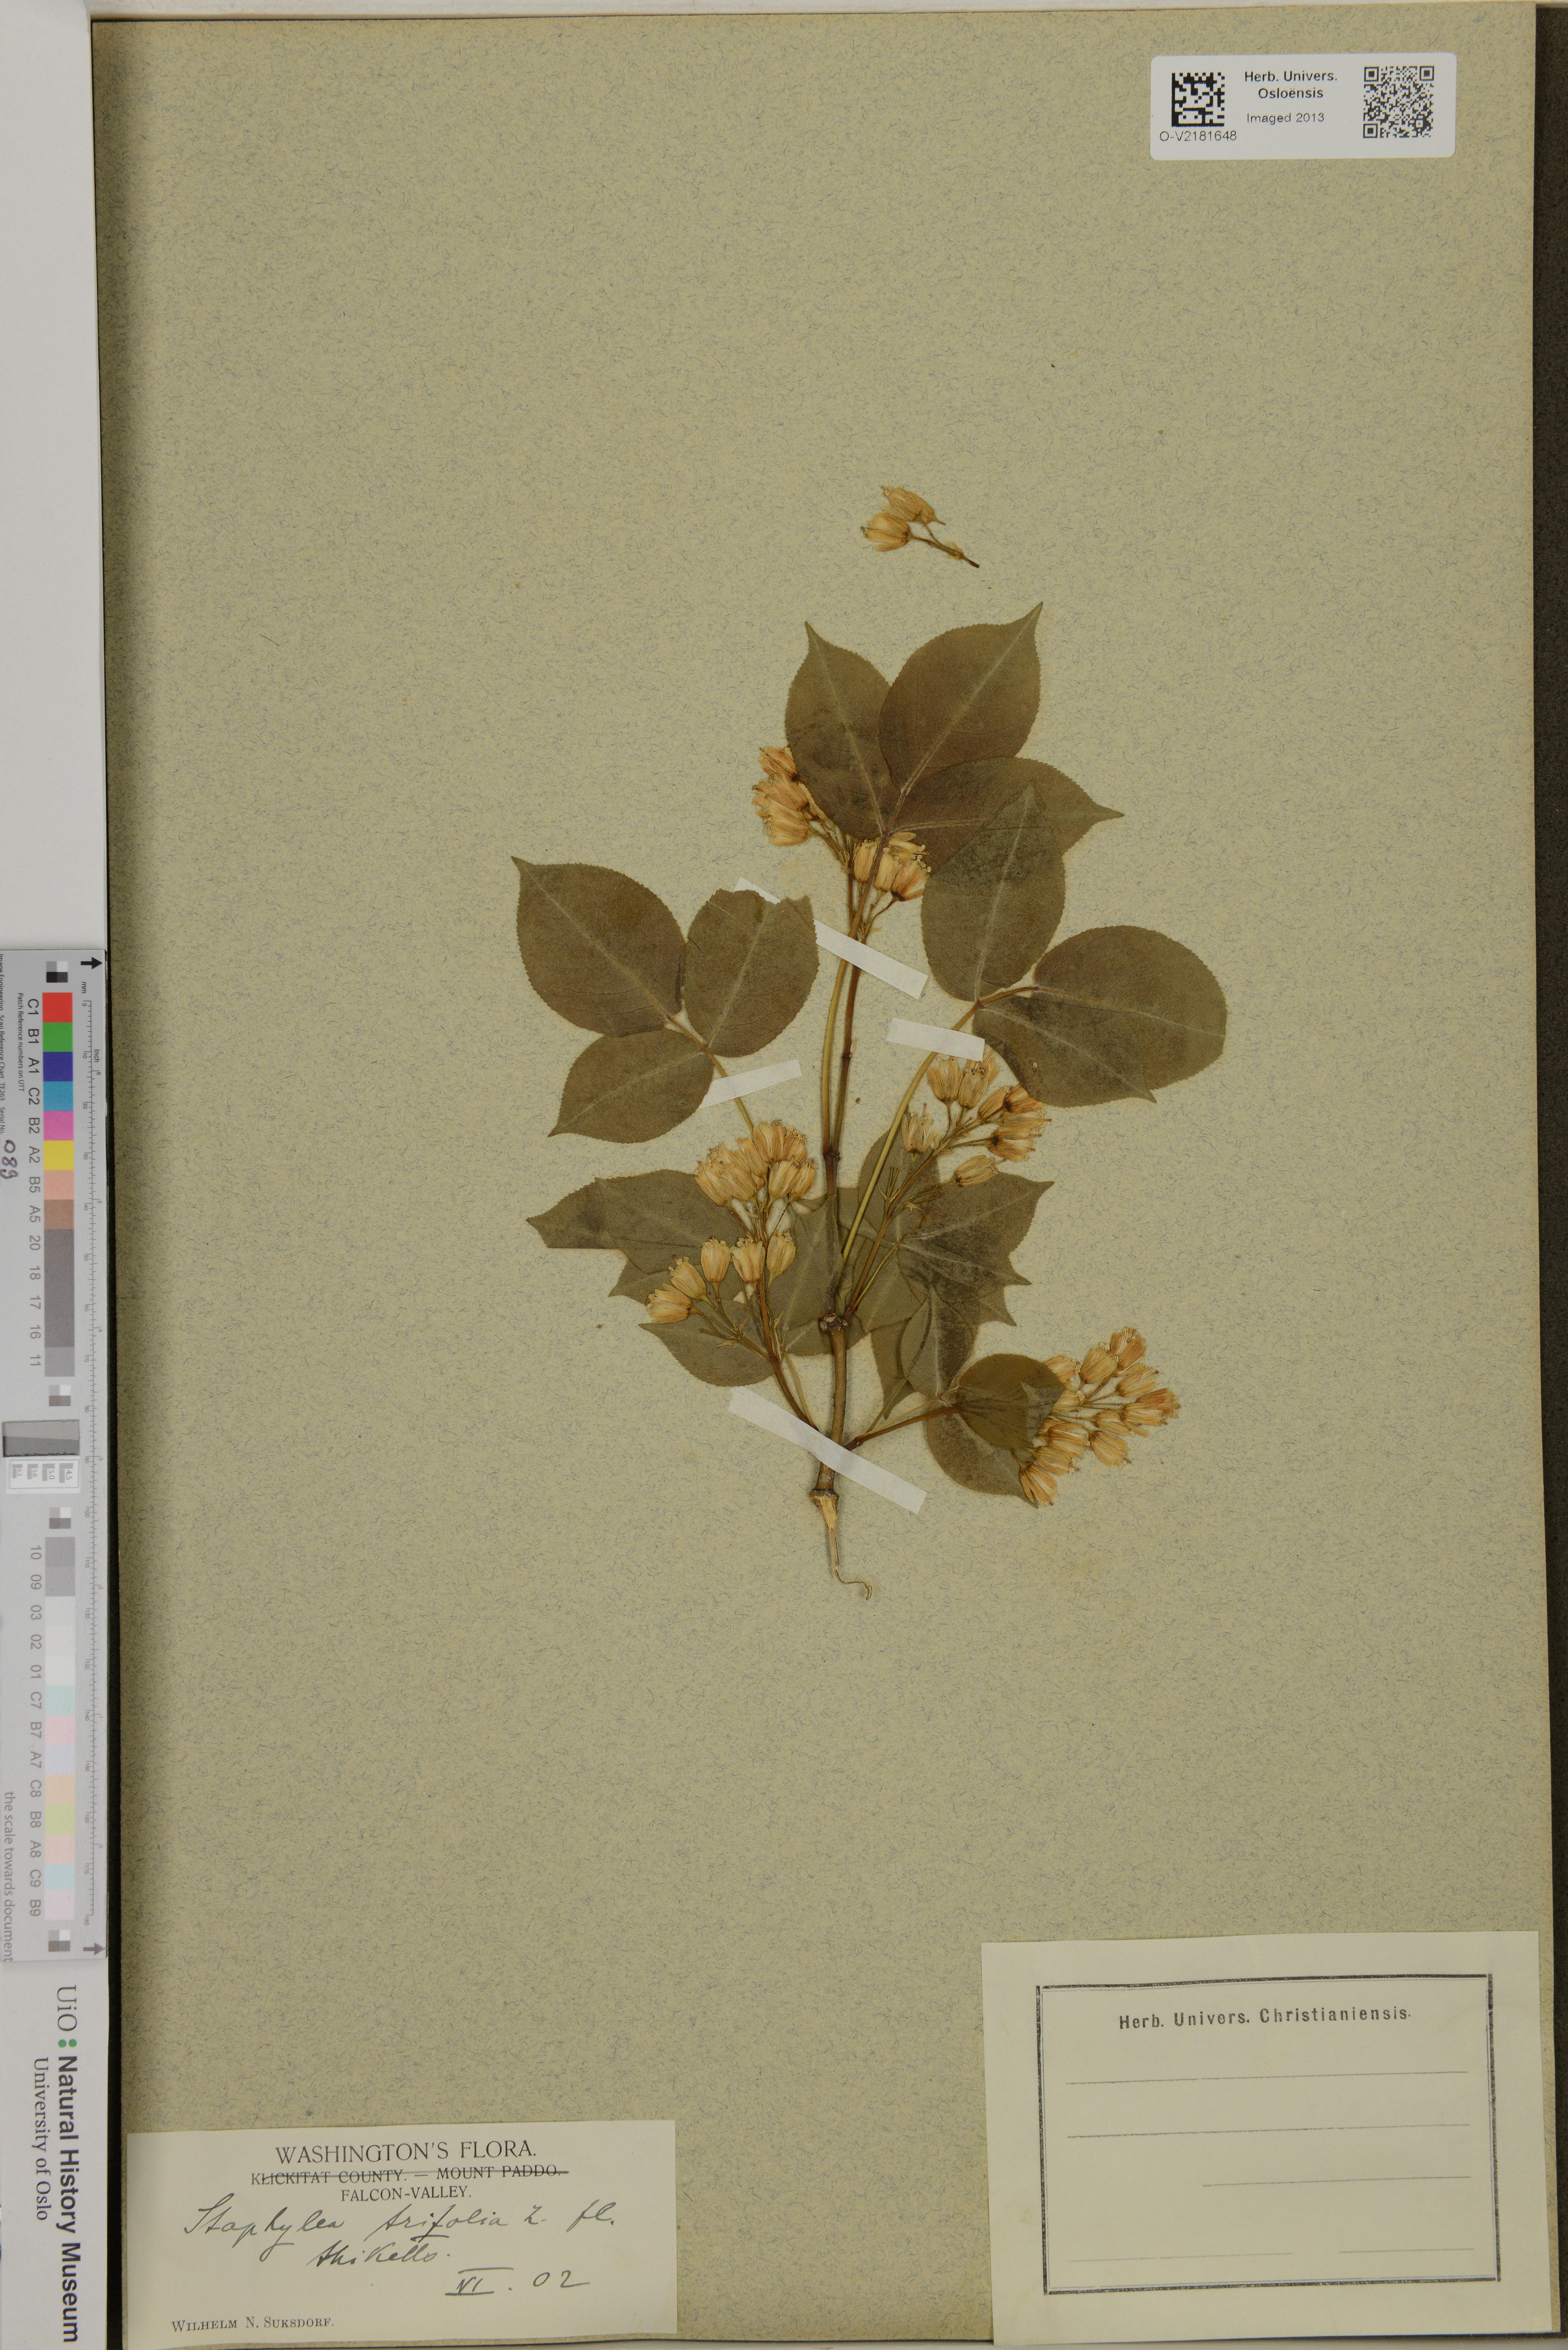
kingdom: Plantae
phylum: Tracheophyta
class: Magnoliopsida
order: Crossosomatales
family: Staphyleaceae
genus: Staphylea
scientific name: Staphylea trifolia
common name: American bladdernut
